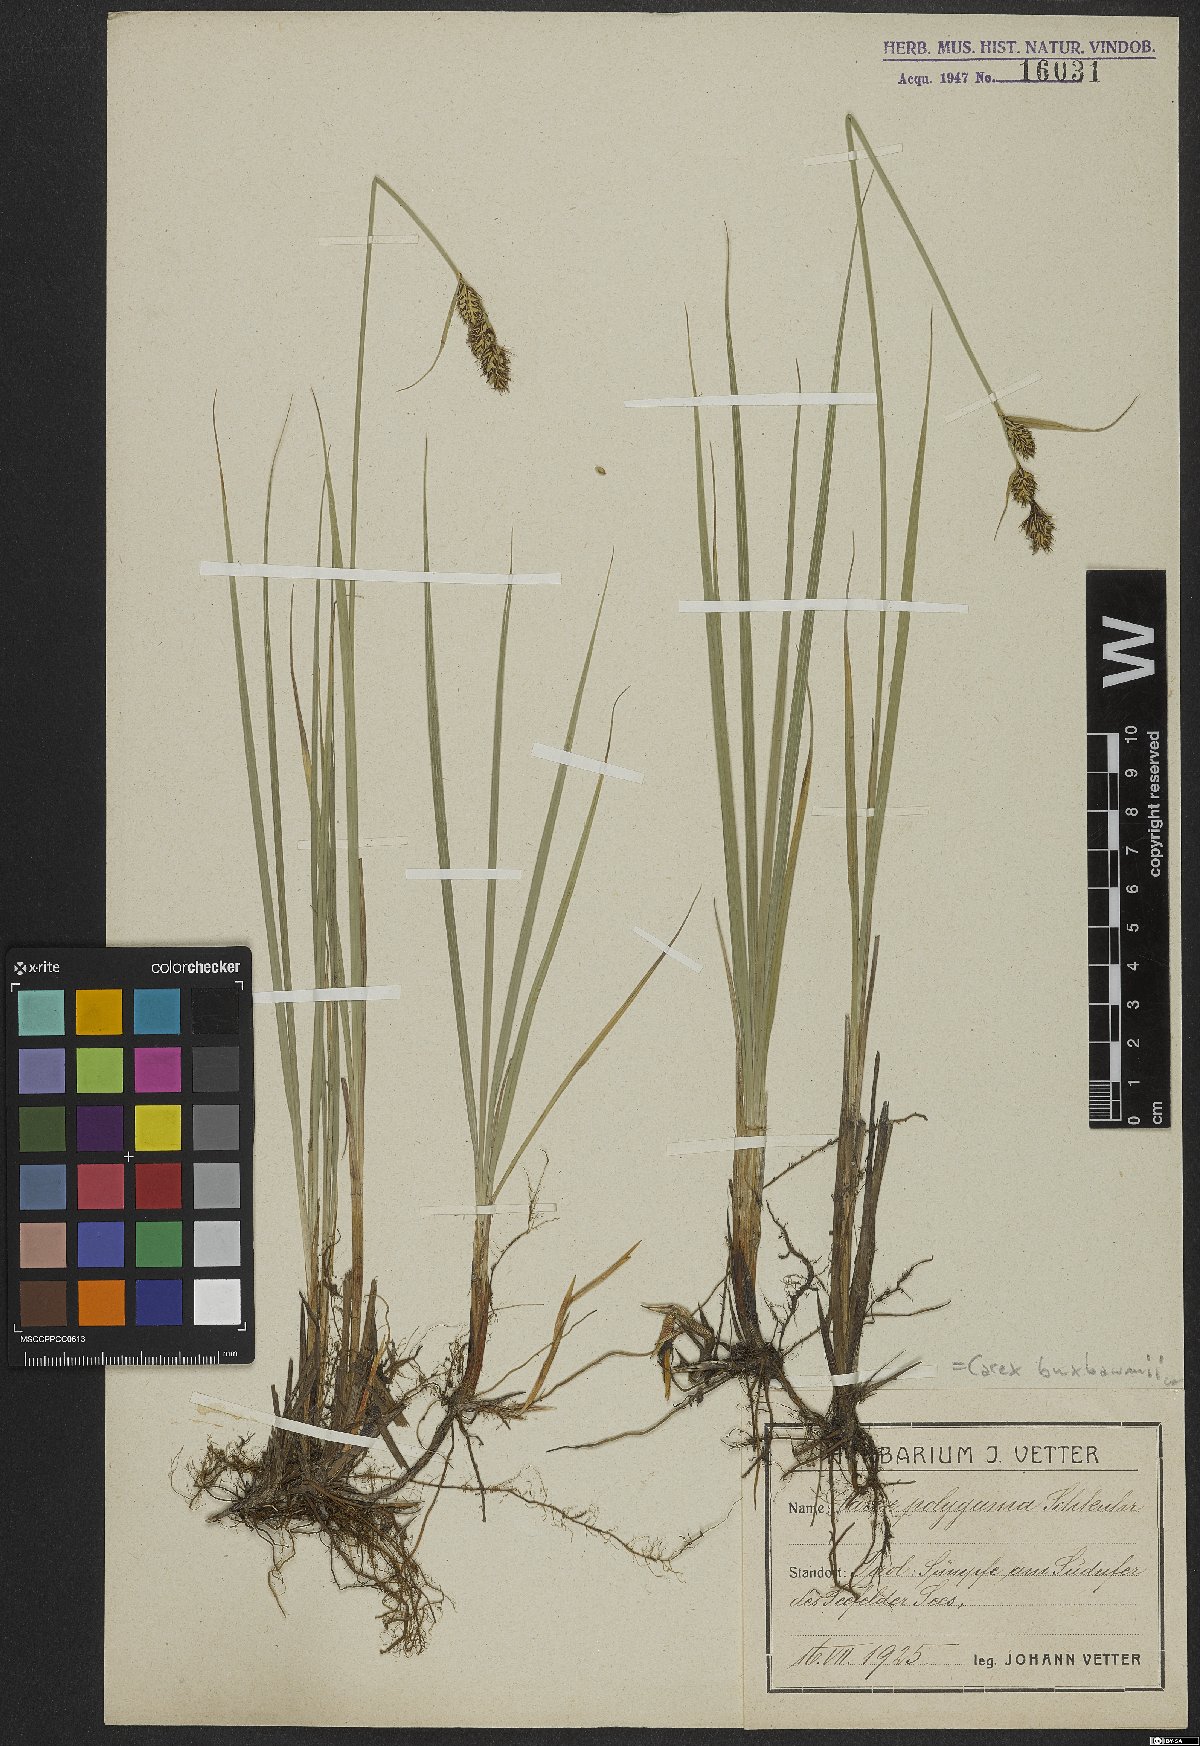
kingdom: Plantae
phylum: Tracheophyta
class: Liliopsida
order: Poales
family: Cyperaceae
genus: Carex
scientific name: Carex buxbaumii
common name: Club sedge
